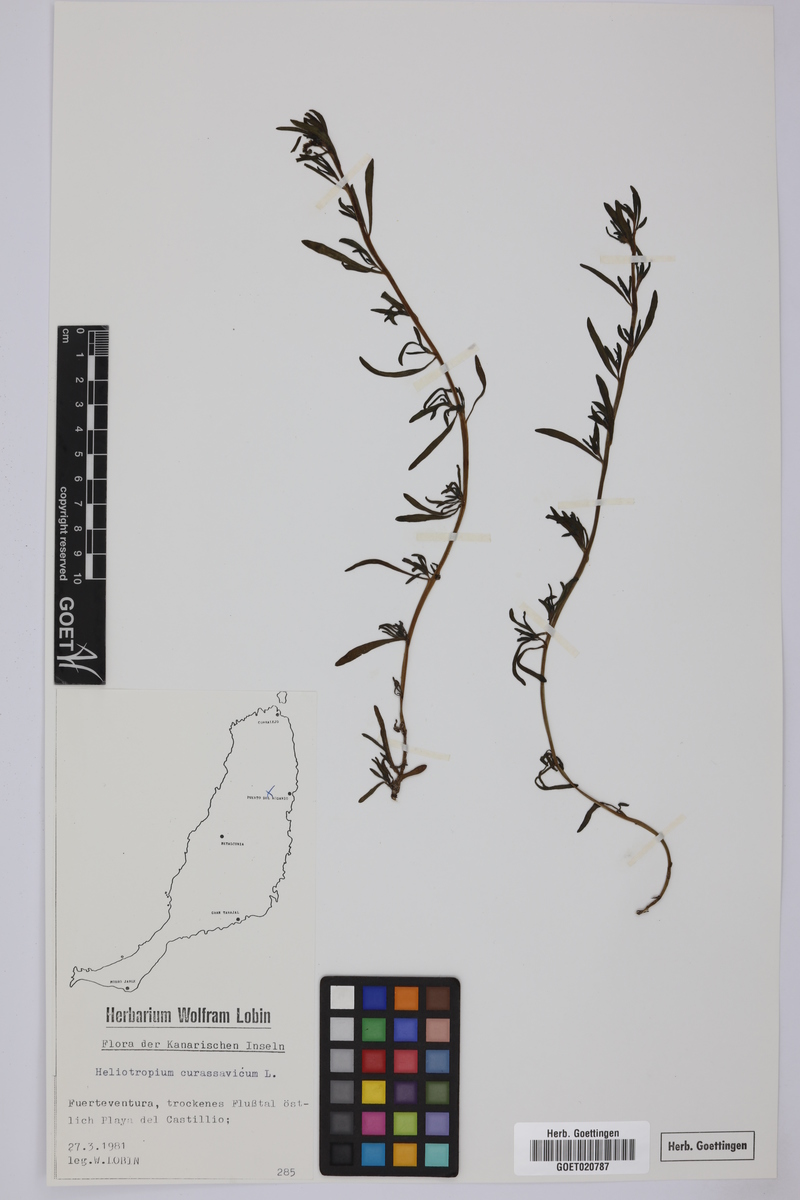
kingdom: Plantae
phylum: Tracheophyta
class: Magnoliopsida
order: Boraginales
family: Heliotropiaceae
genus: Heliotropium
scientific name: Heliotropium curassavicum
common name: Seaside heliotrope
